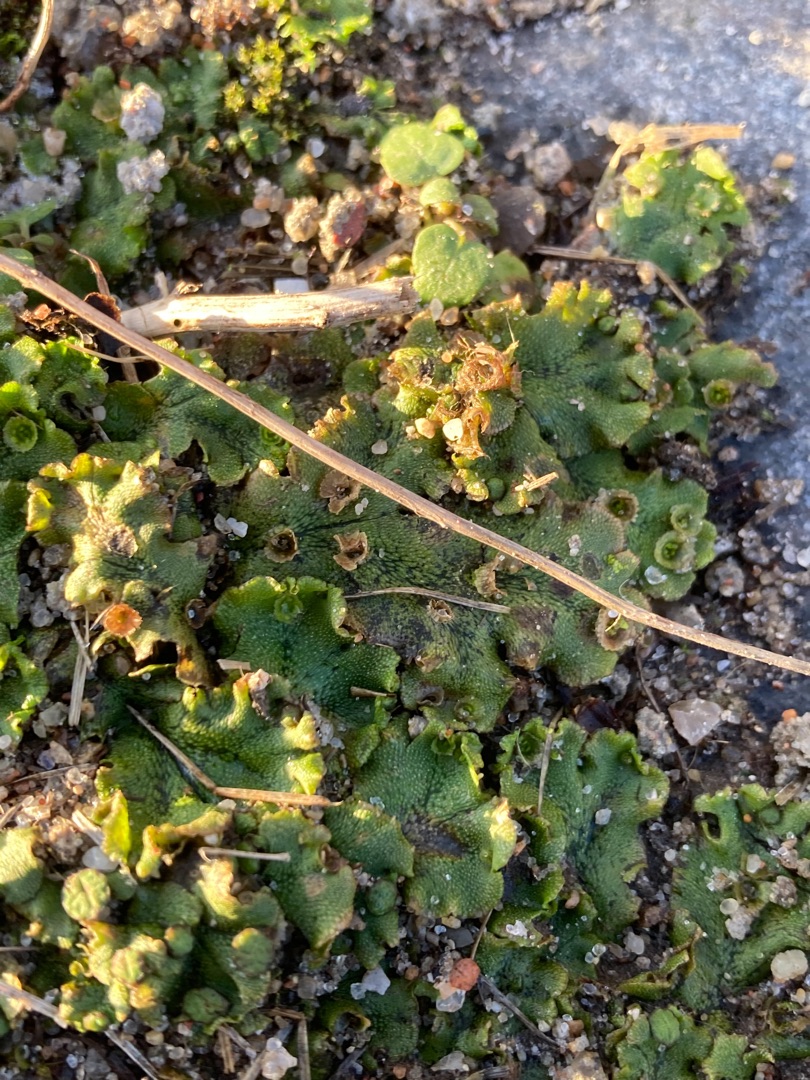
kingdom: Plantae
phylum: Marchantiophyta
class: Marchantiopsida
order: Marchantiales
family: Marchantiaceae
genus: Marchantia
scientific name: Marchantia polymorpha
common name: Almindelig lungemos (underart)
